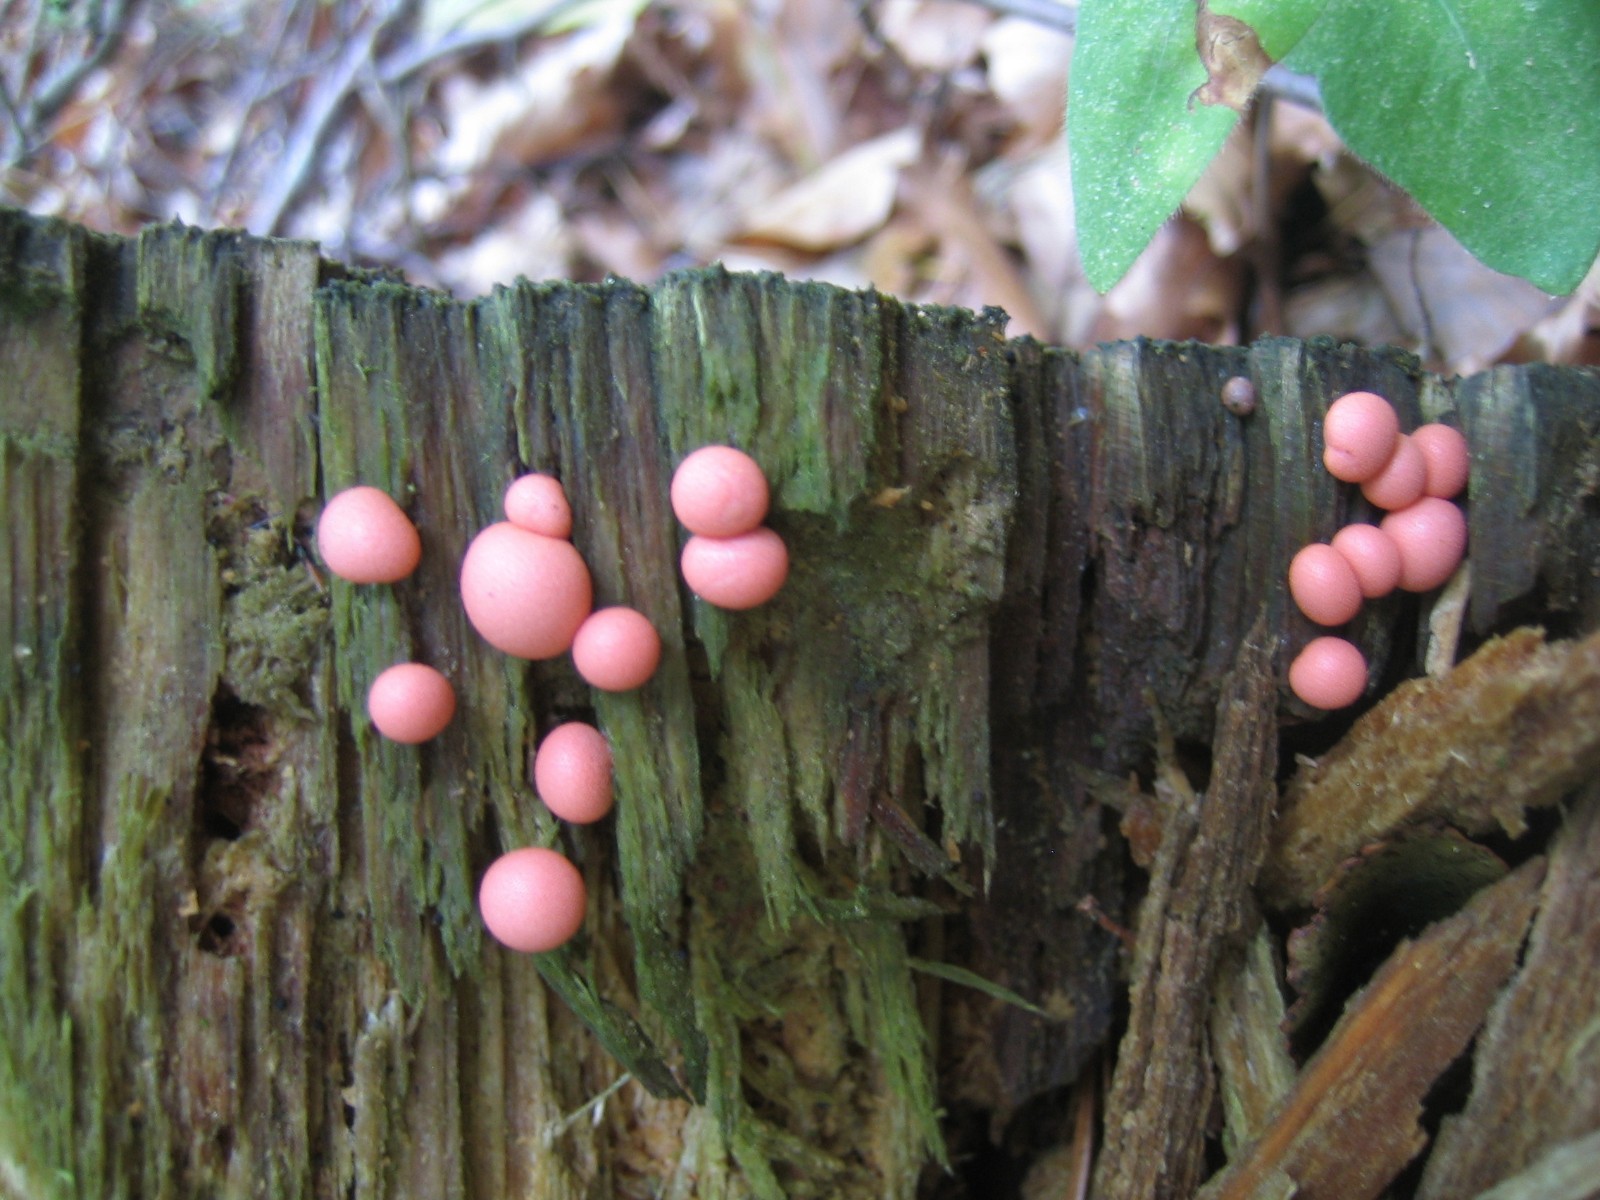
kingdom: Protozoa
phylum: Mycetozoa
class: Myxomycetes
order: Cribrariales
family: Tubiferaceae
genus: Lycogala
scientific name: Lycogala epidendrum
